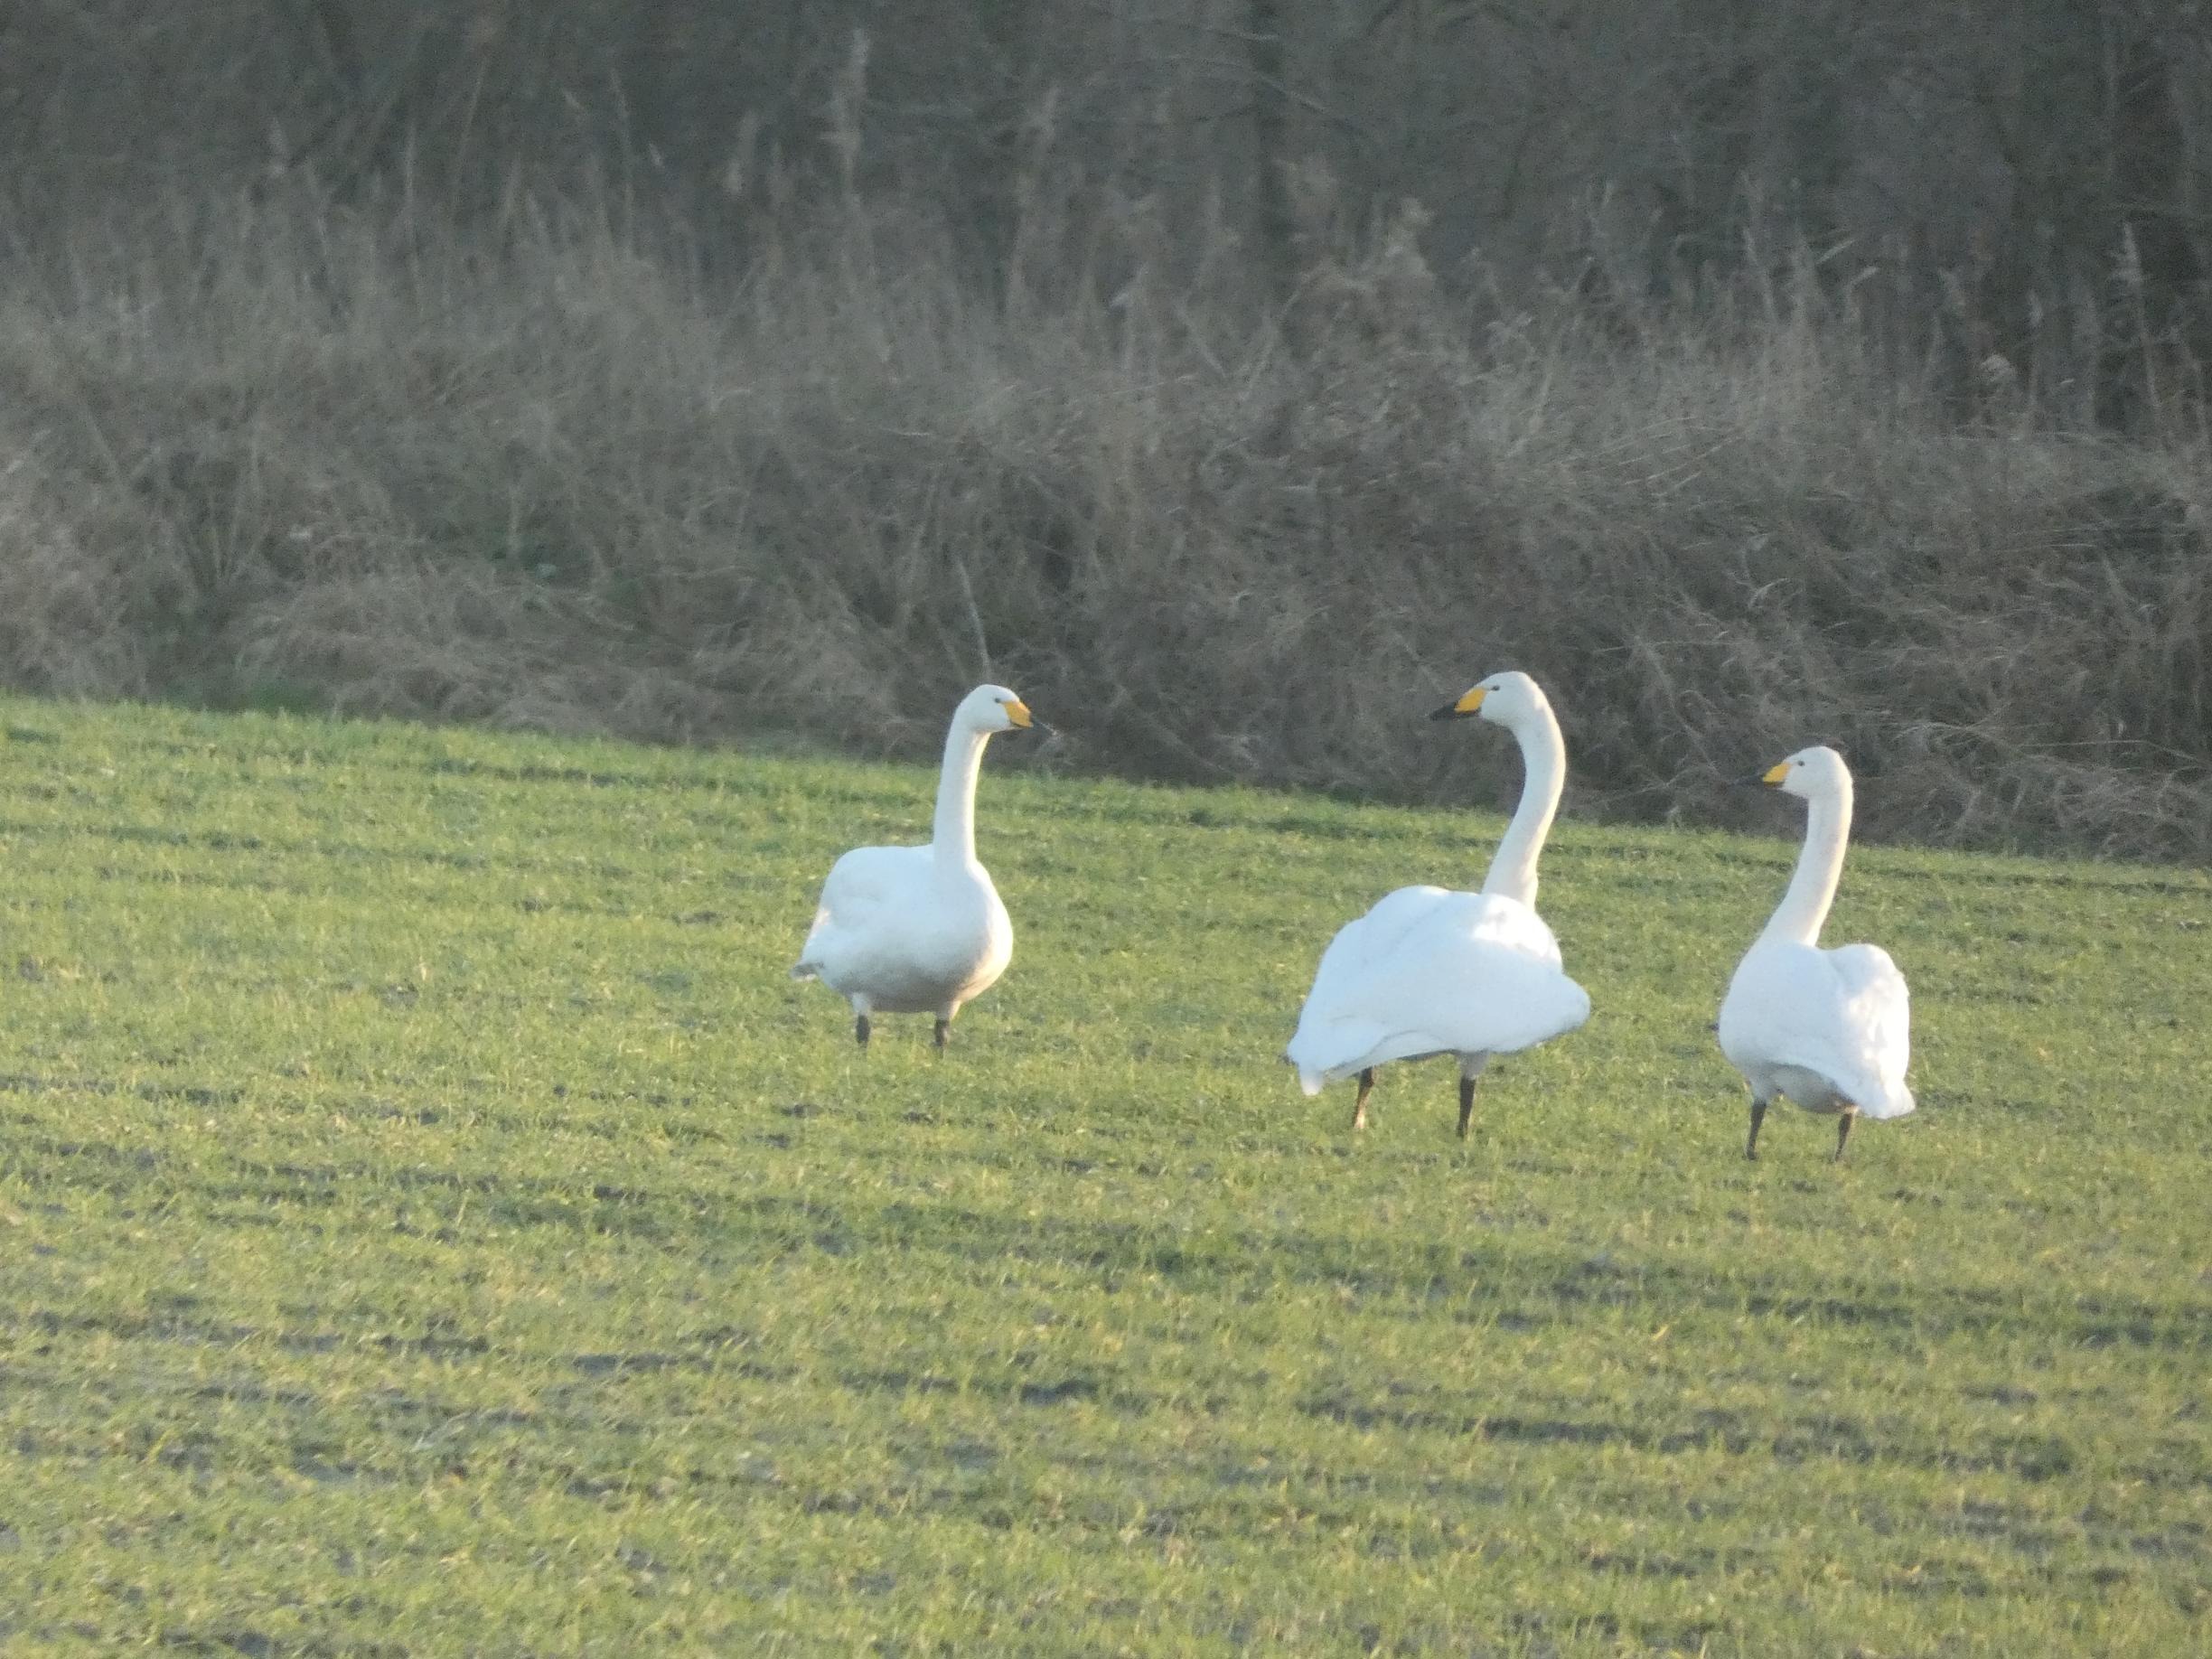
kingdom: Animalia
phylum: Chordata
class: Aves
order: Anseriformes
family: Anatidae
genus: Cygnus
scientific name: Cygnus cygnus
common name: Sangsvane
